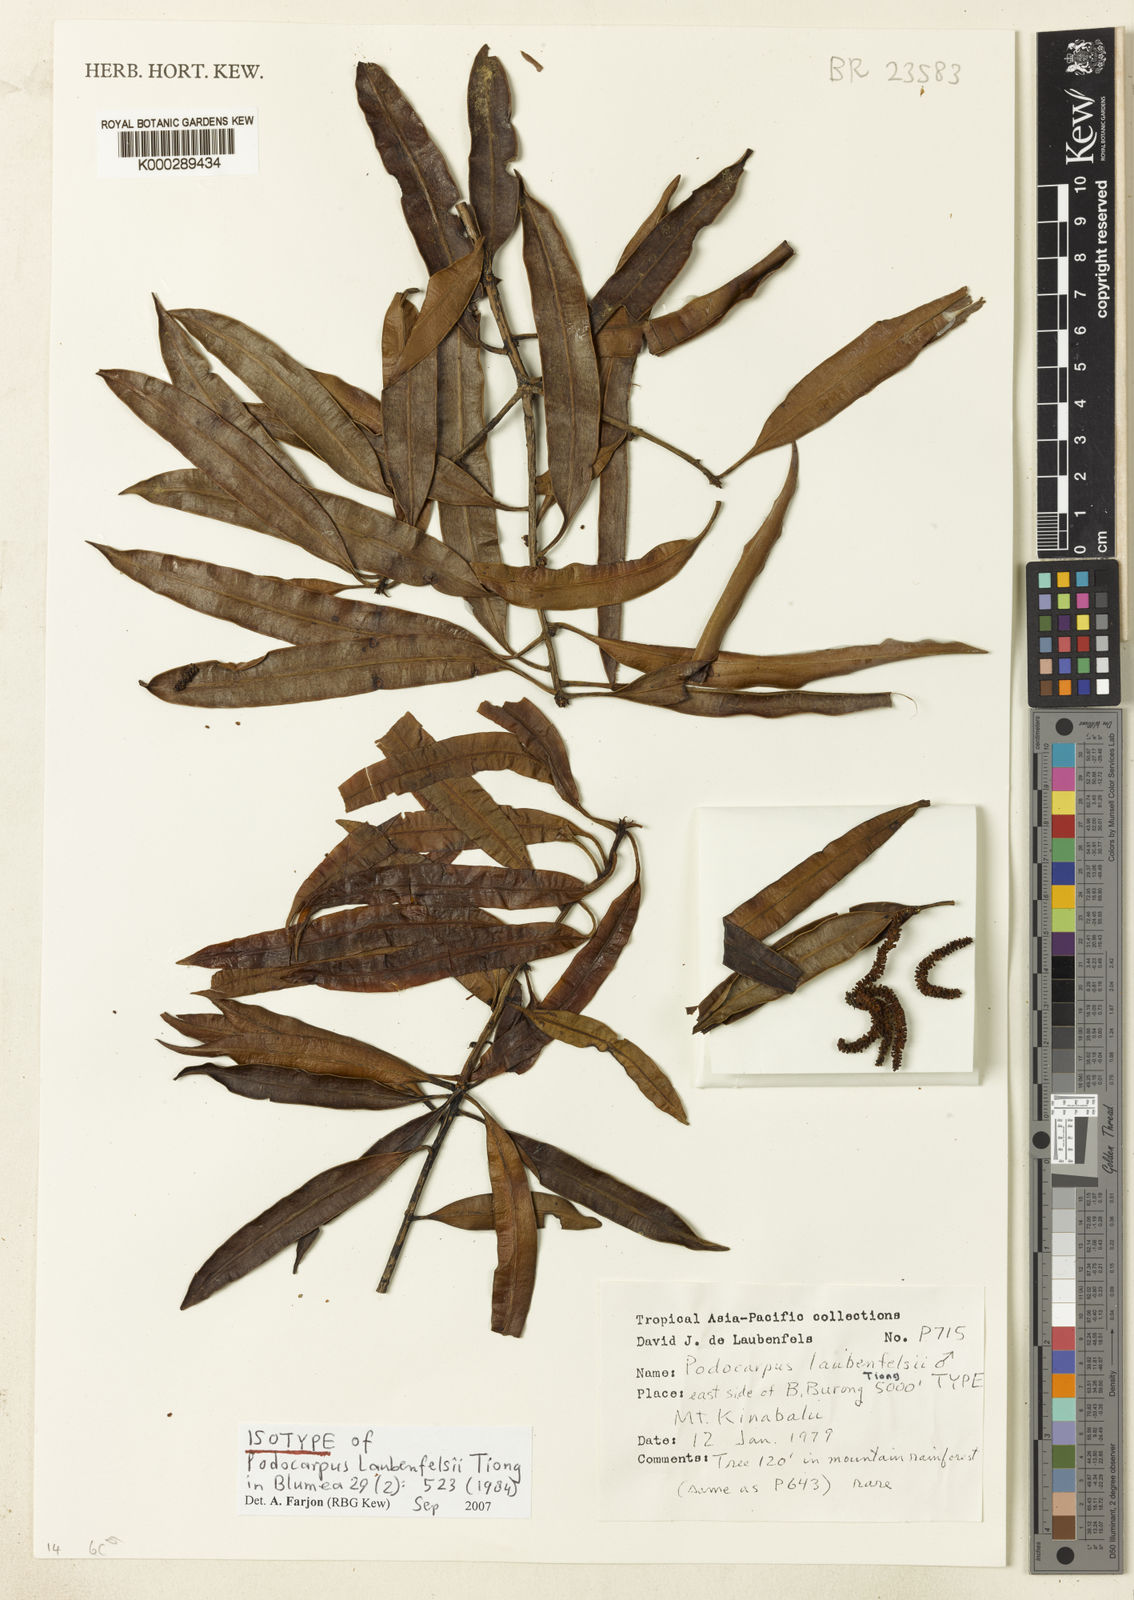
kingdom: Plantae
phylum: Tracheophyta
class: Pinopsida
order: Pinales
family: Podocarpaceae
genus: Podocarpus
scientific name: Podocarpus laubenfelsii
